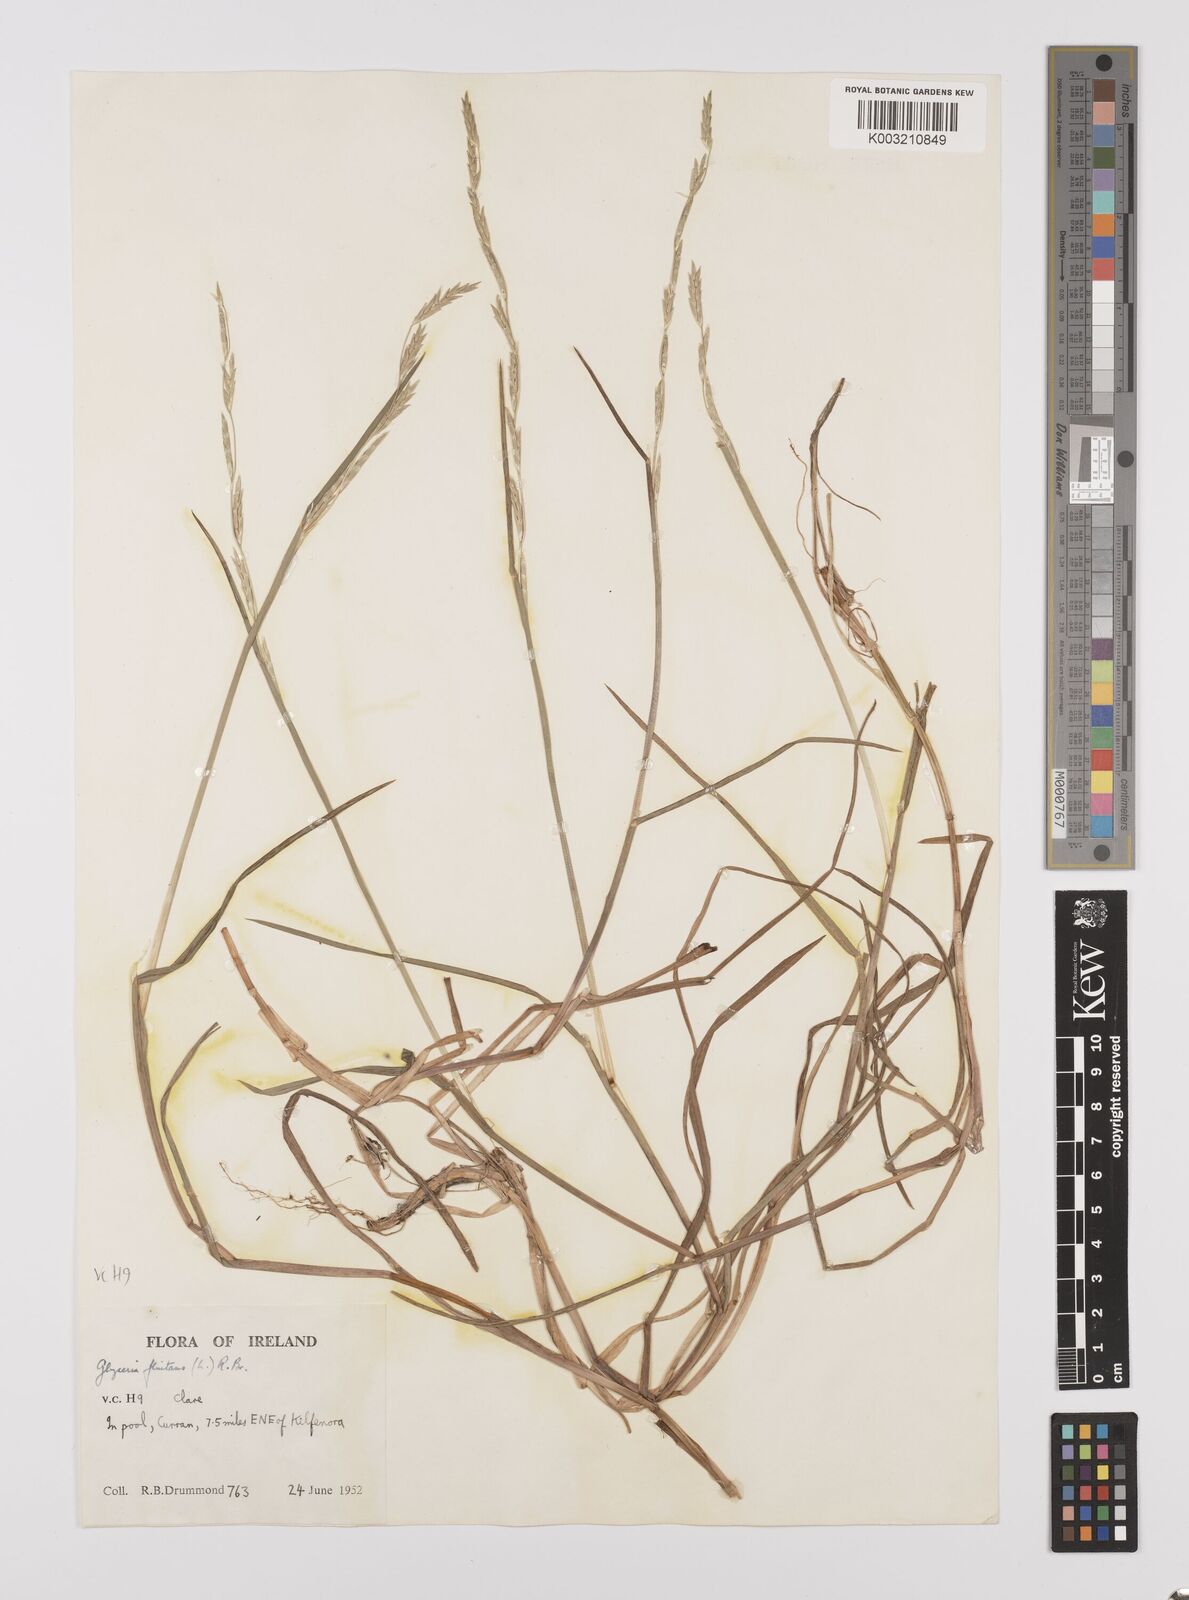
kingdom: Plantae
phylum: Tracheophyta
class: Liliopsida
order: Poales
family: Poaceae
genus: Glyceria
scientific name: Glyceria fluitans
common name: Floating sweet-grass
